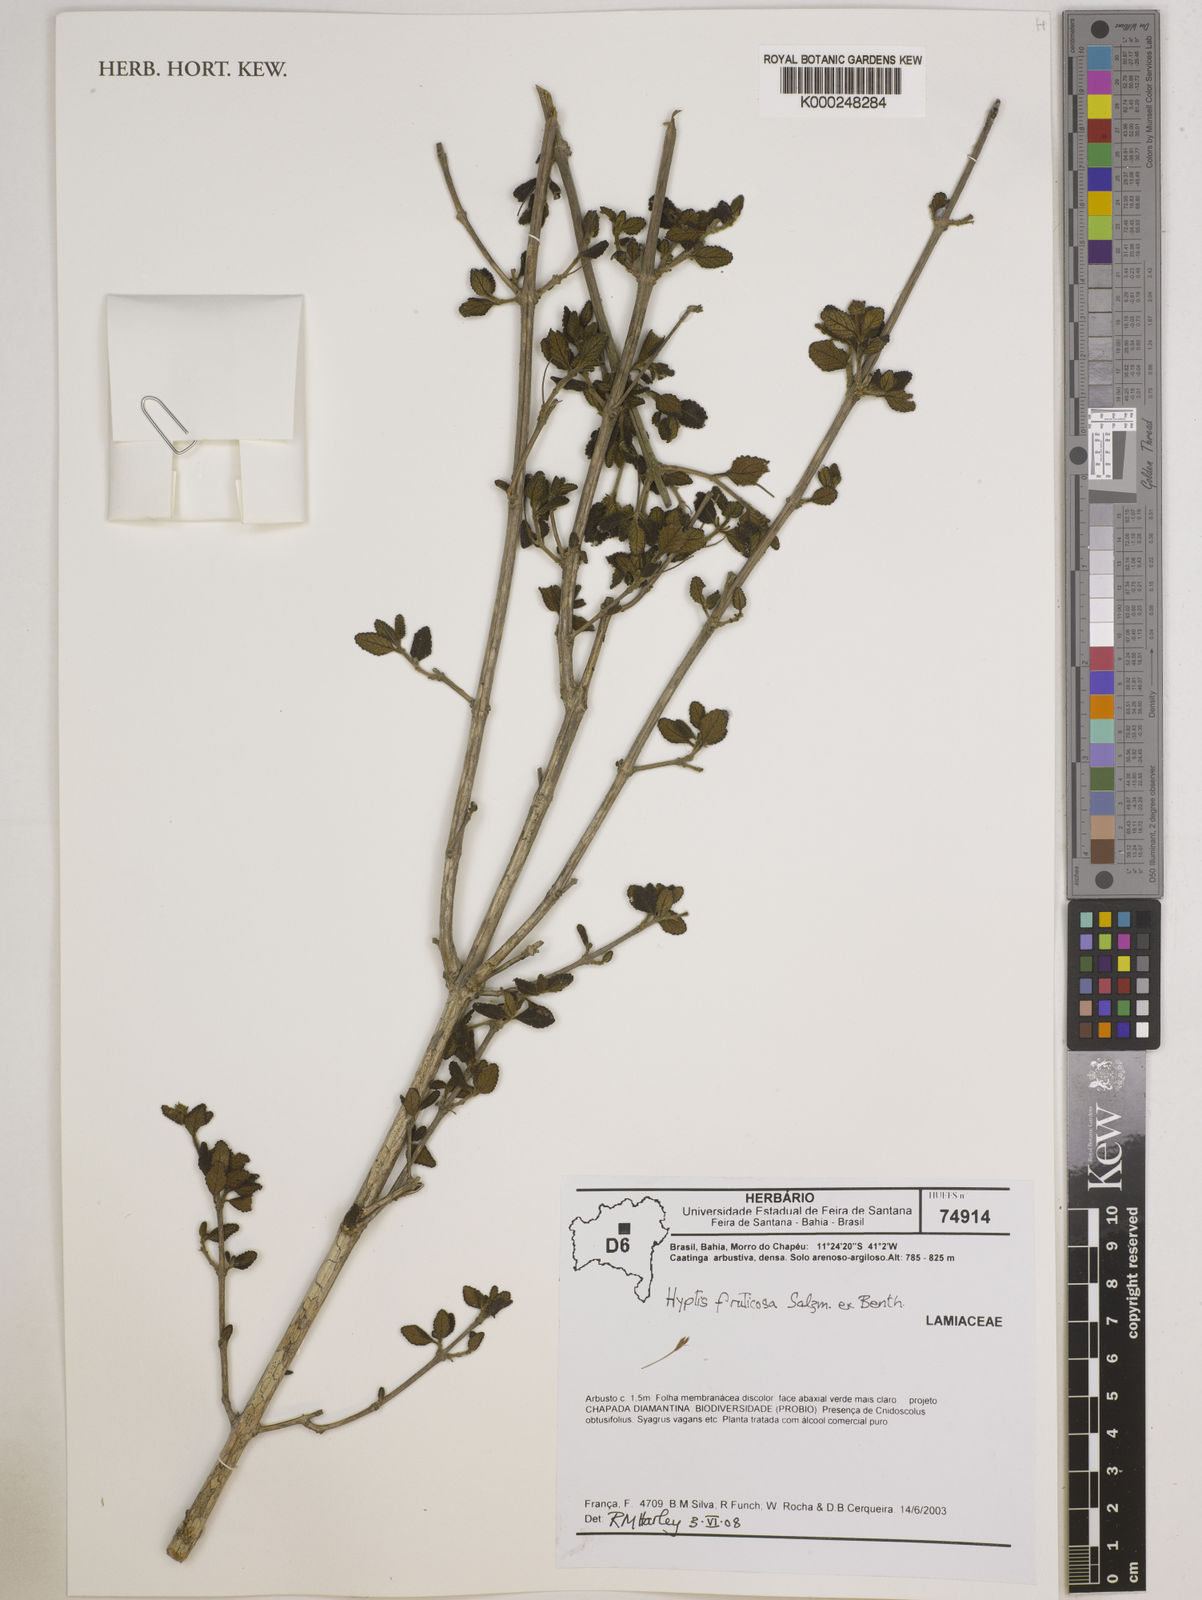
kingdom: Plantae
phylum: Tracheophyta
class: Magnoliopsida
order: Lamiales
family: Lamiaceae
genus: Eplingiella
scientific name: Eplingiella fruticosa
